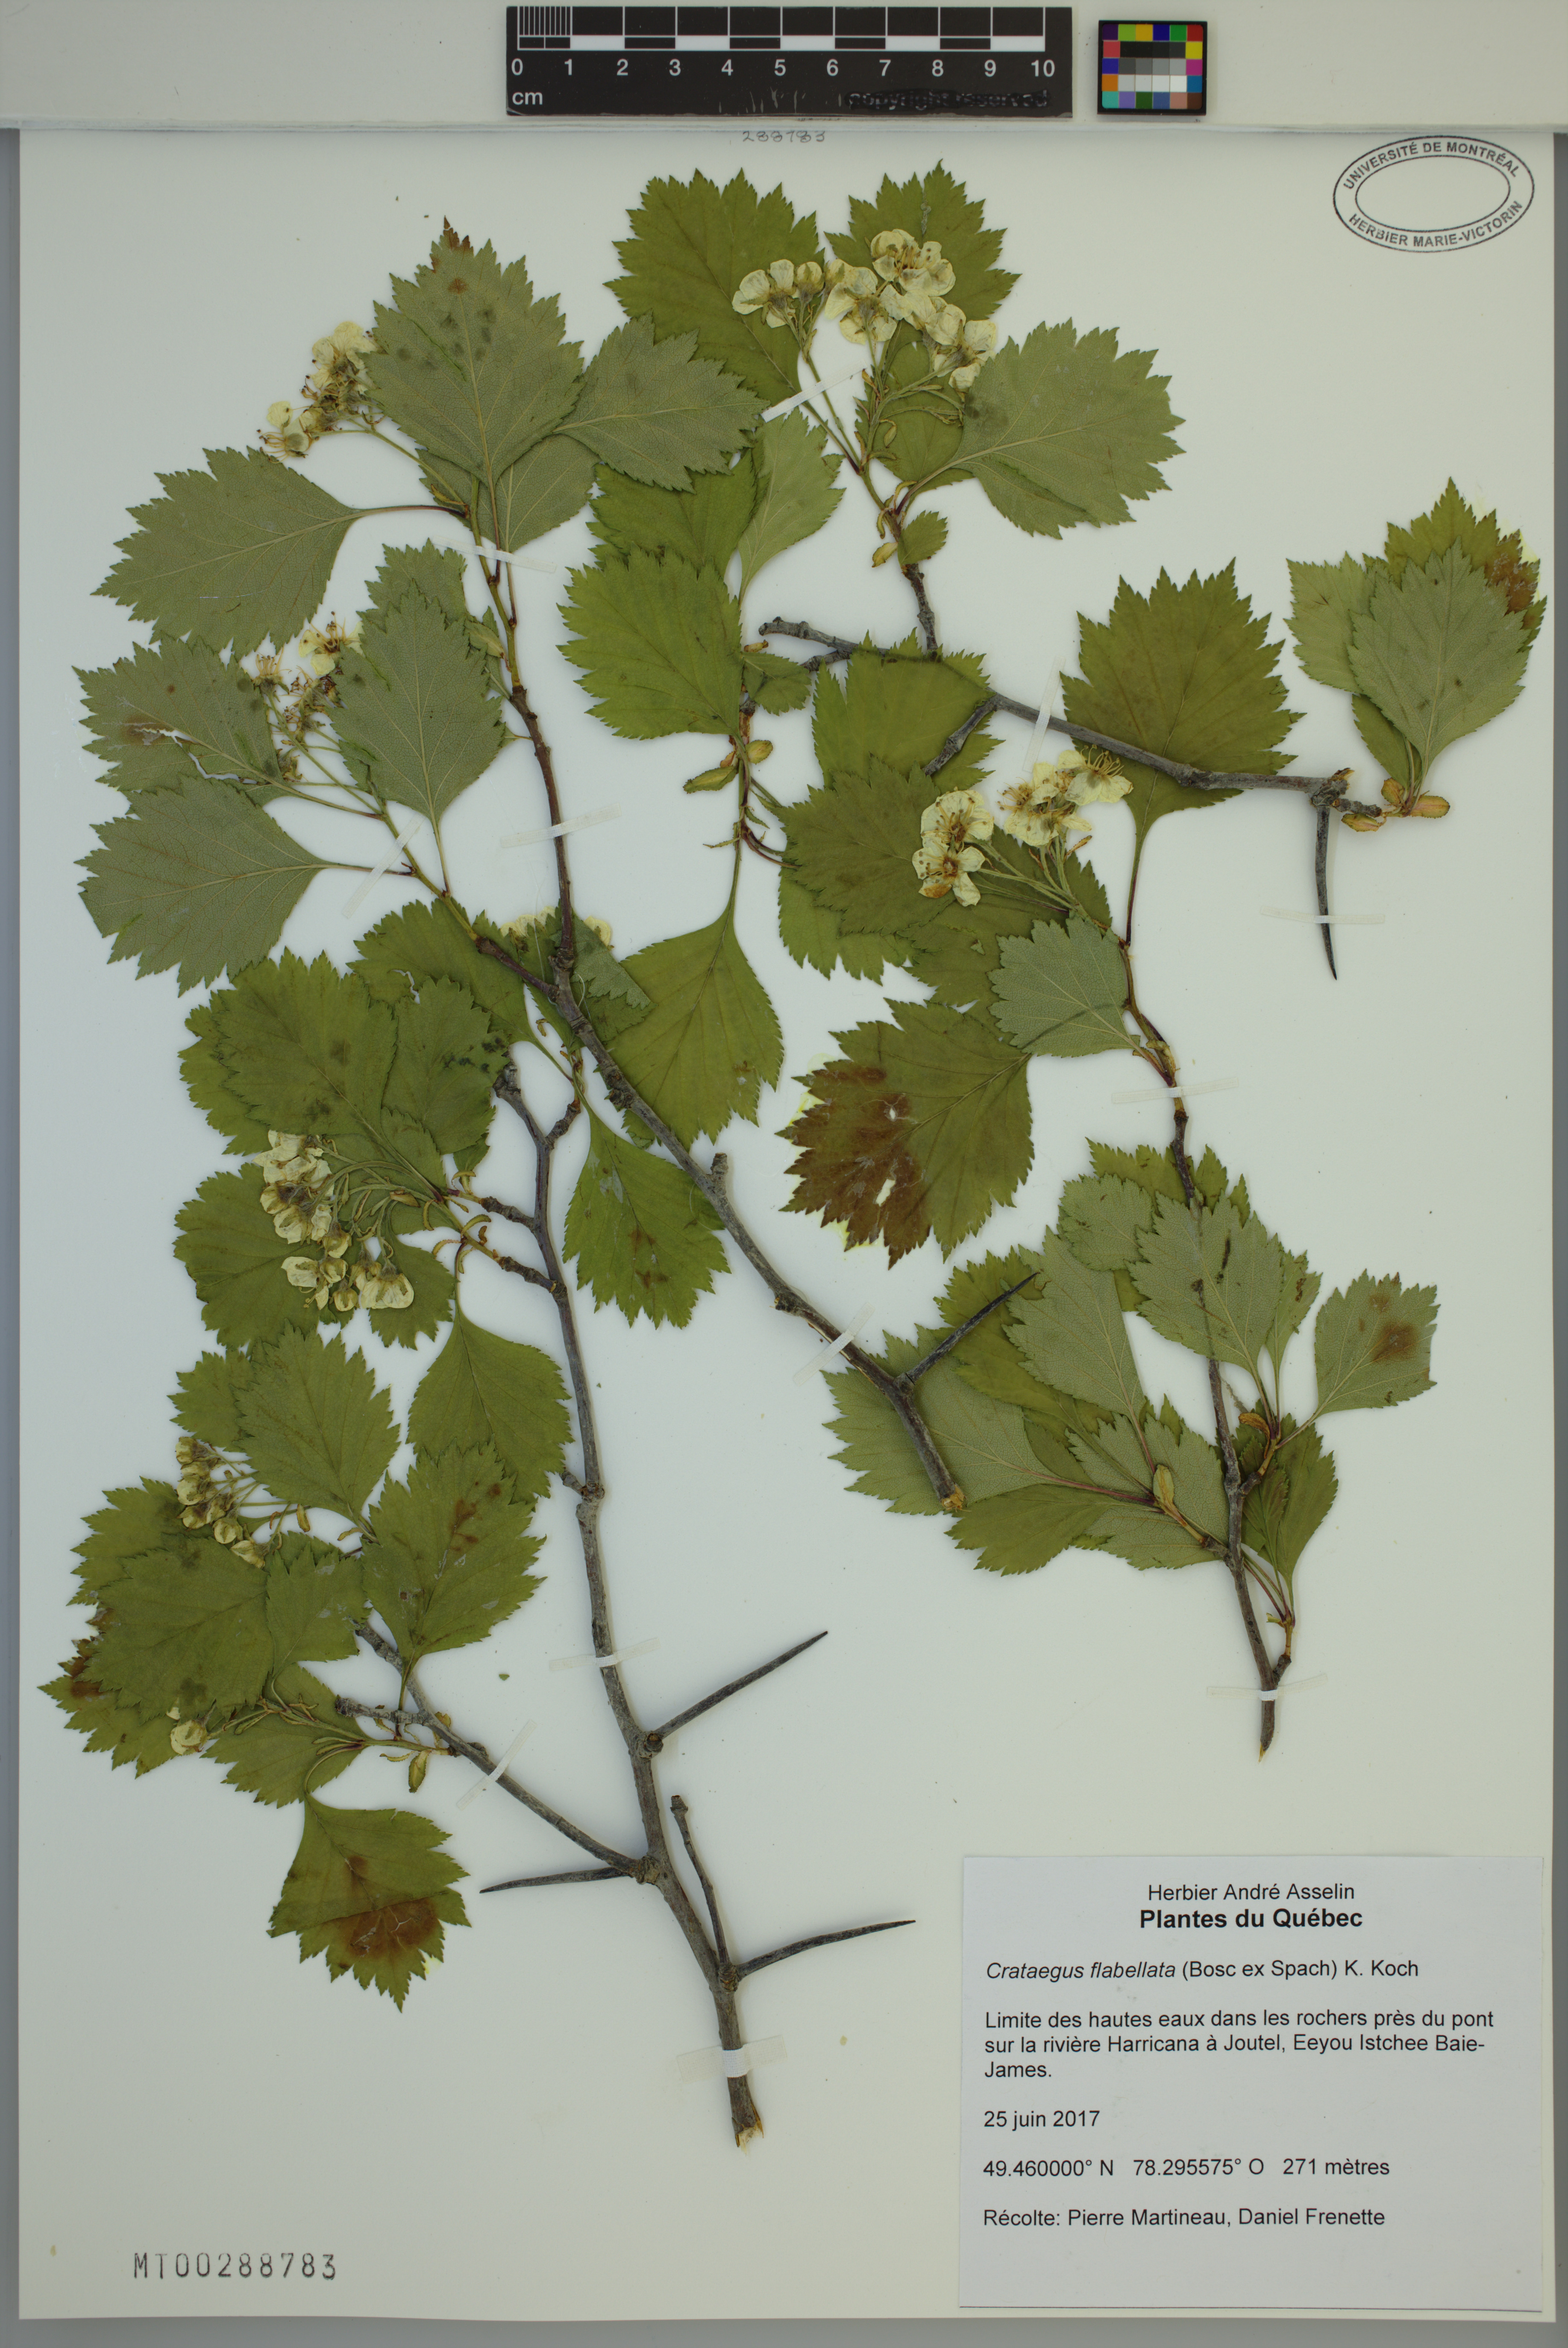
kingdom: Plantae
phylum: Tracheophyta
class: Magnoliopsida
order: Rosales
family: Rosaceae
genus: Crataegus
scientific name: Crataegus flabellata
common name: Bosc's hawthorn
